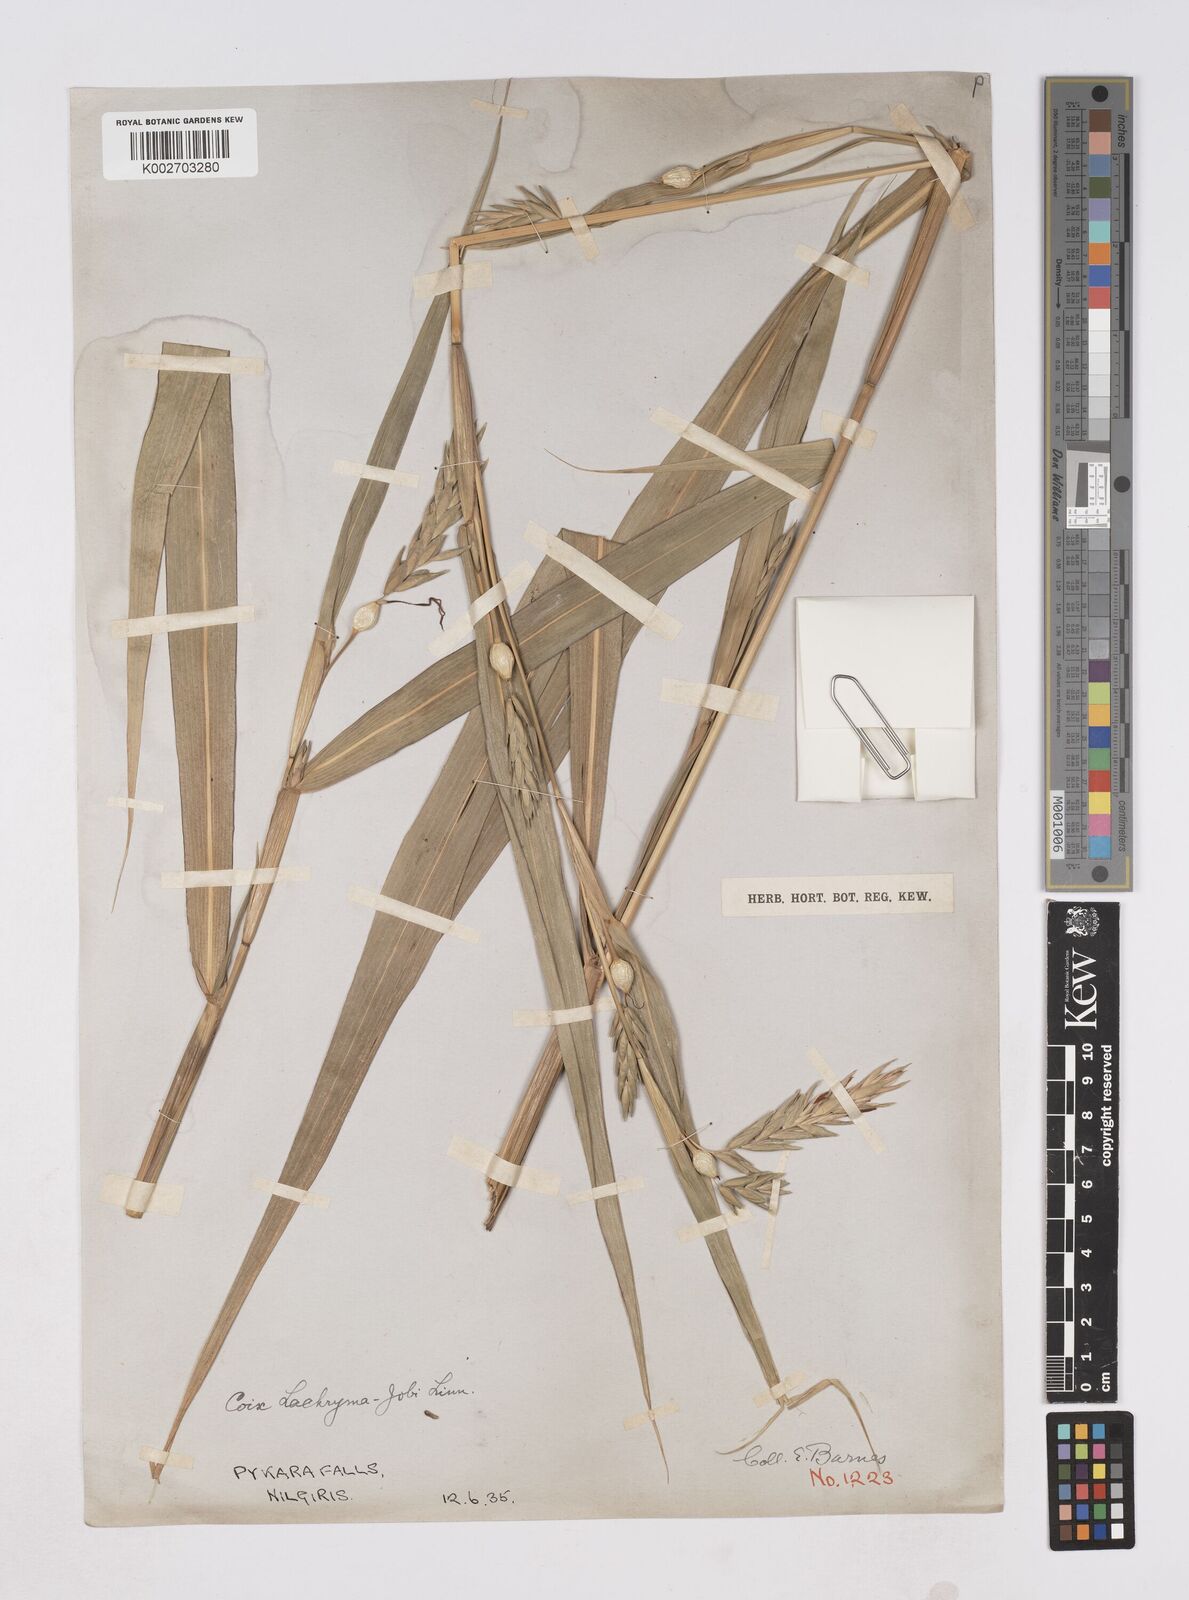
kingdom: Plantae
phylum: Tracheophyta
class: Liliopsida
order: Poales
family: Poaceae
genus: Coix
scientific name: Coix aquatica
